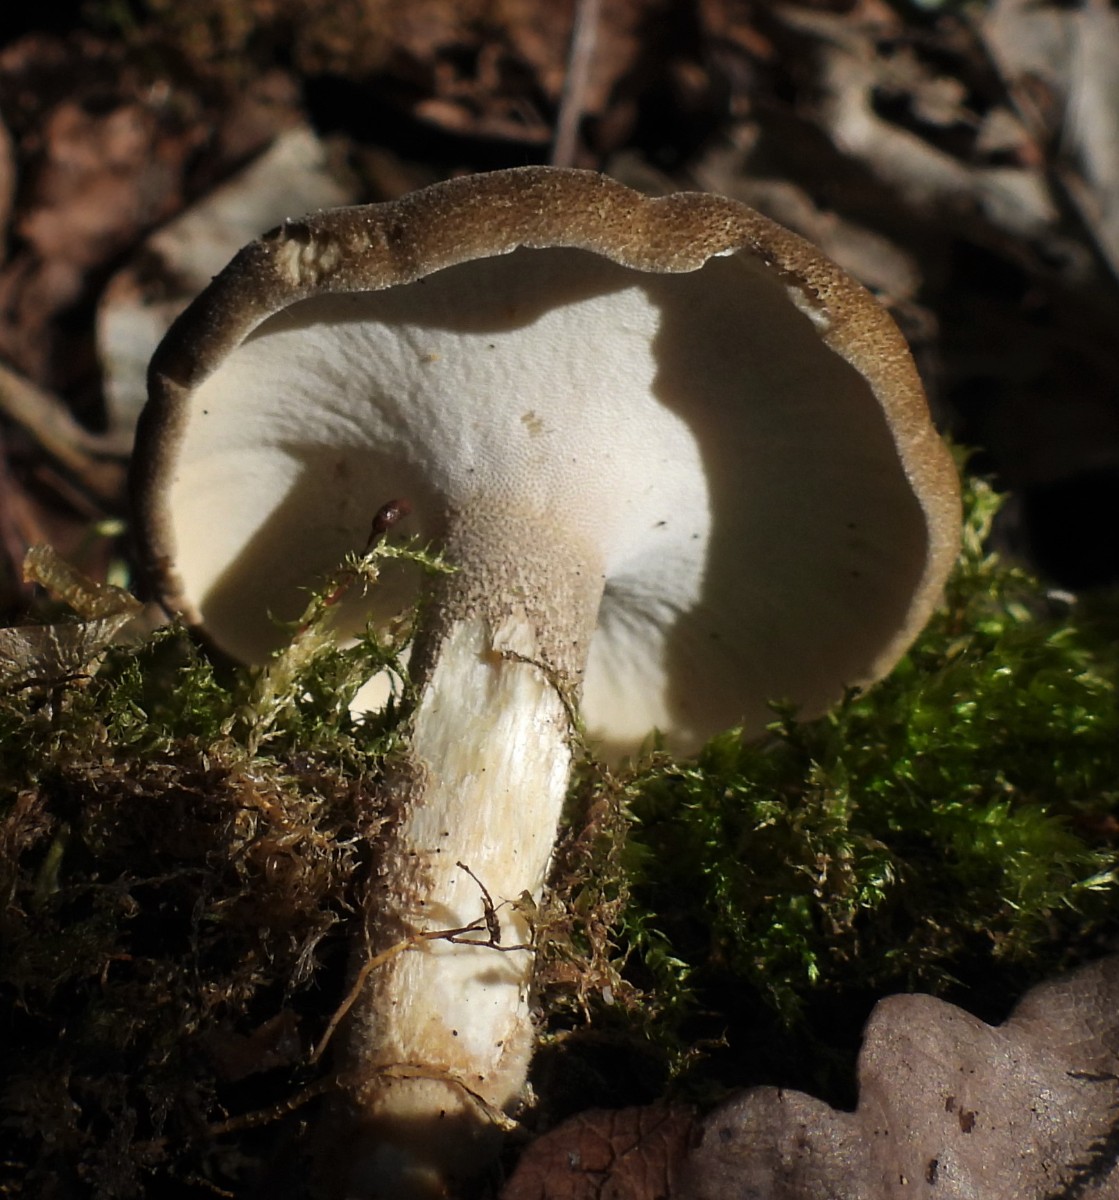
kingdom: Fungi
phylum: Basidiomycota
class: Agaricomycetes
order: Polyporales
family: Polyporaceae
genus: Lentinus
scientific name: Lentinus substrictus
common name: forårs-stilkporesvamp
